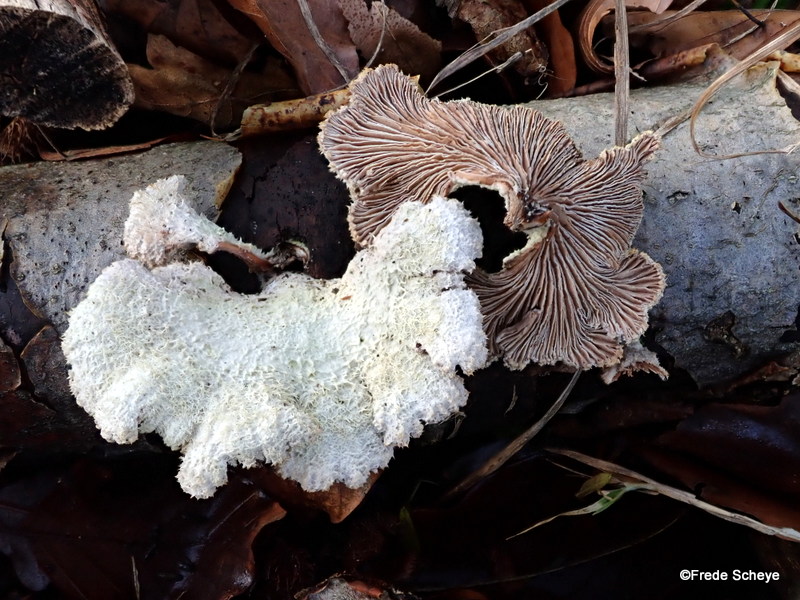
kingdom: Fungi
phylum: Basidiomycota
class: Agaricomycetes
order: Agaricales
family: Schizophyllaceae
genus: Schizophyllum
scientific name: Schizophyllum commune
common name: kløvblad
